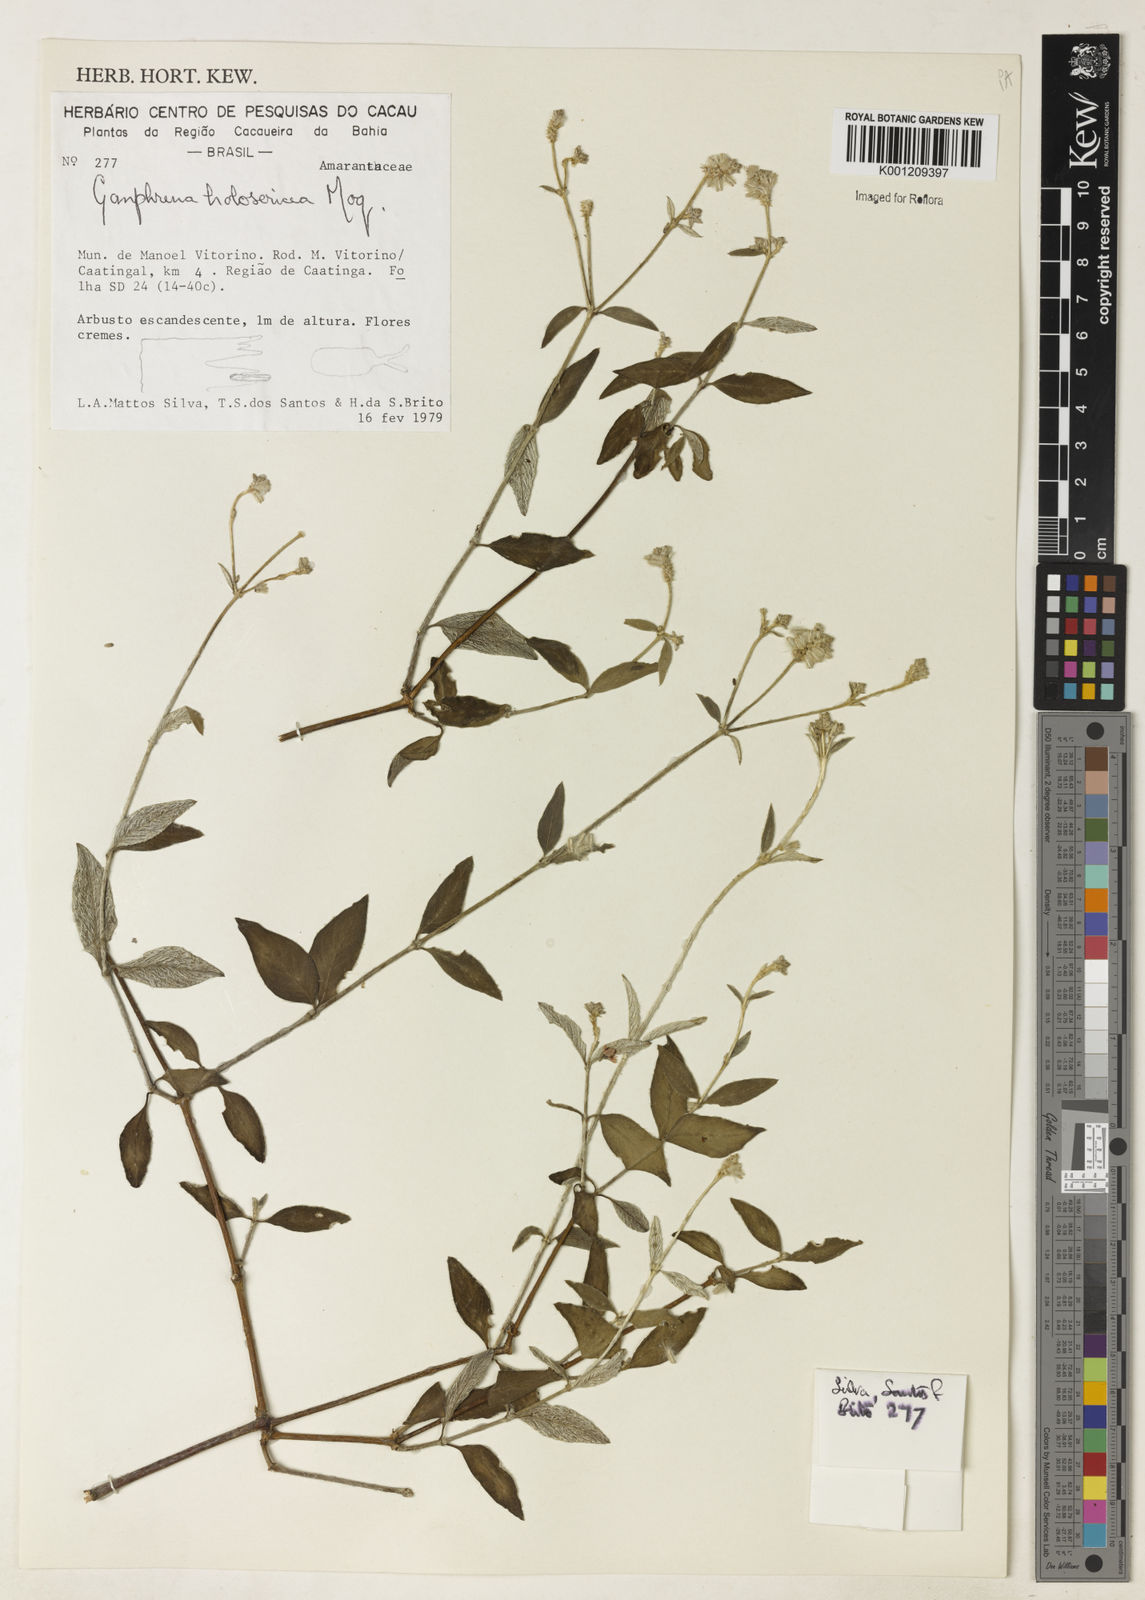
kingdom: Plantae
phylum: Tracheophyta
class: Magnoliopsida
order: Caryophyllales
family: Amaranthaceae
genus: Gomphrena
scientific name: Gomphrena vaga
